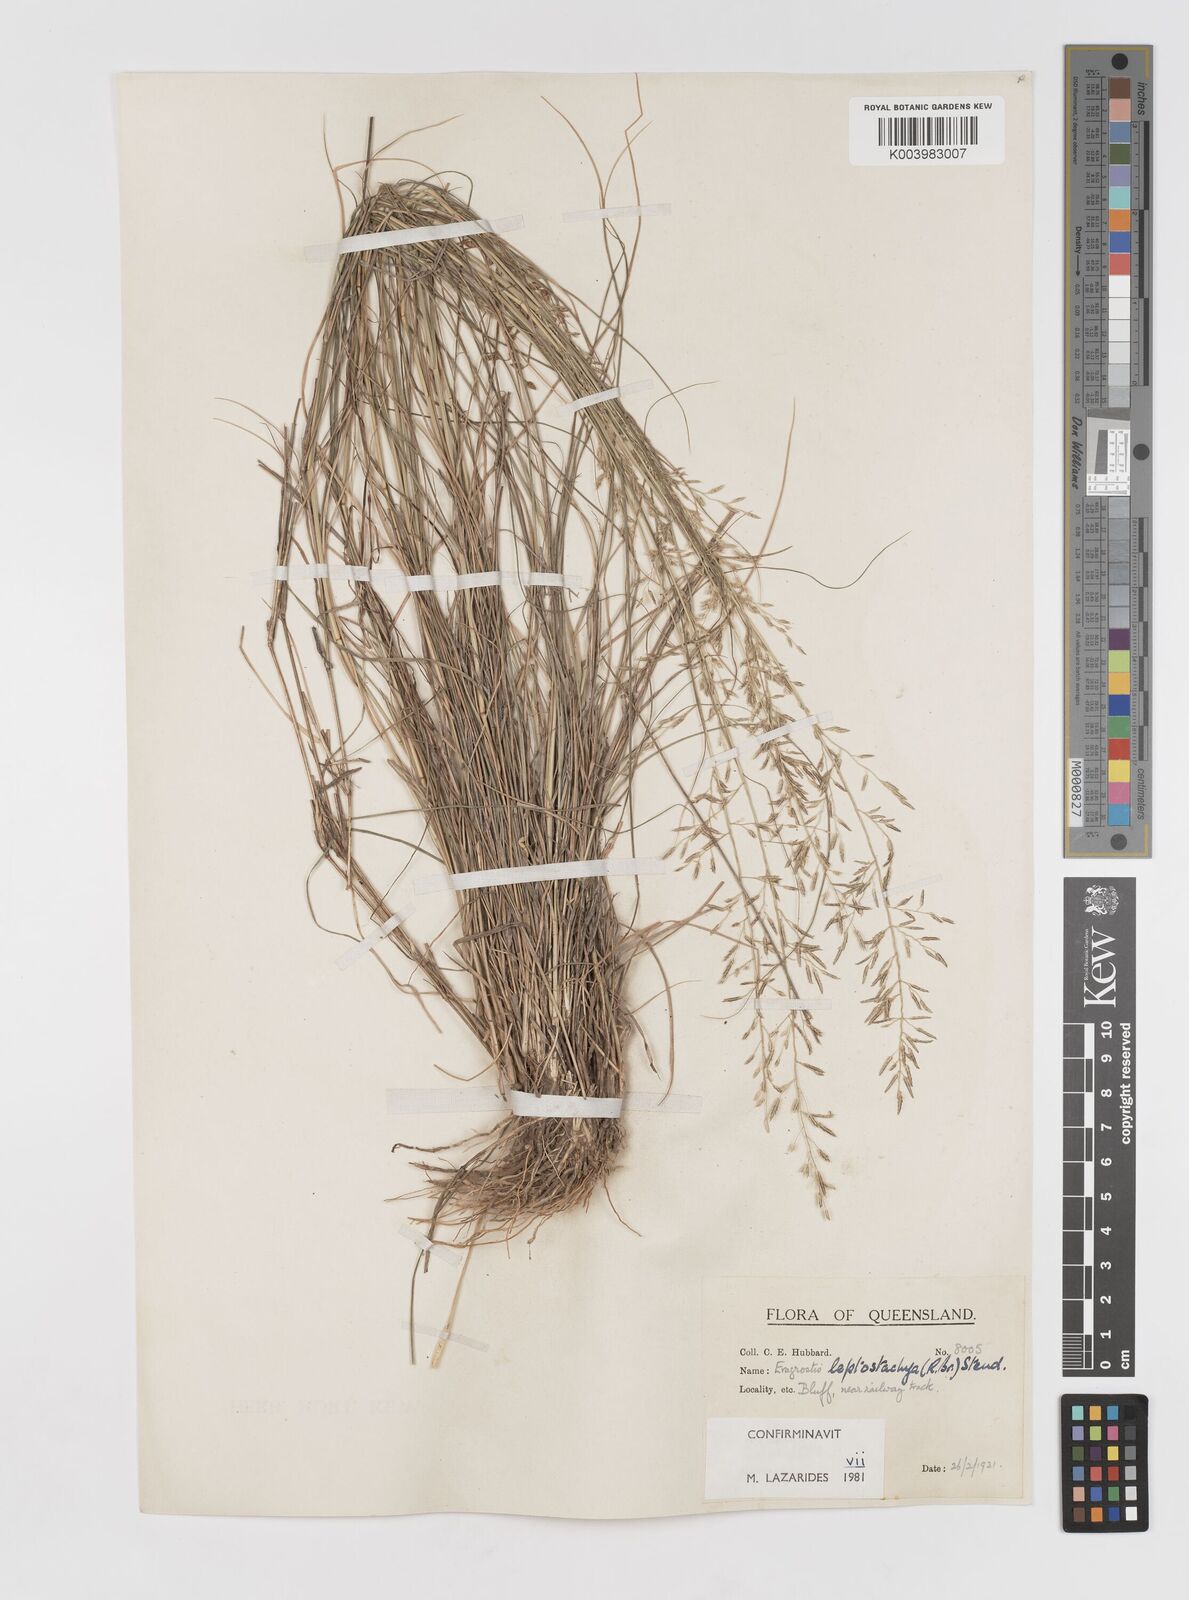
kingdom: Plantae
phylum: Tracheophyta
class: Liliopsida
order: Poales
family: Poaceae
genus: Eragrostis
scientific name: Eragrostis leptostachya
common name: Australian lovegrass
